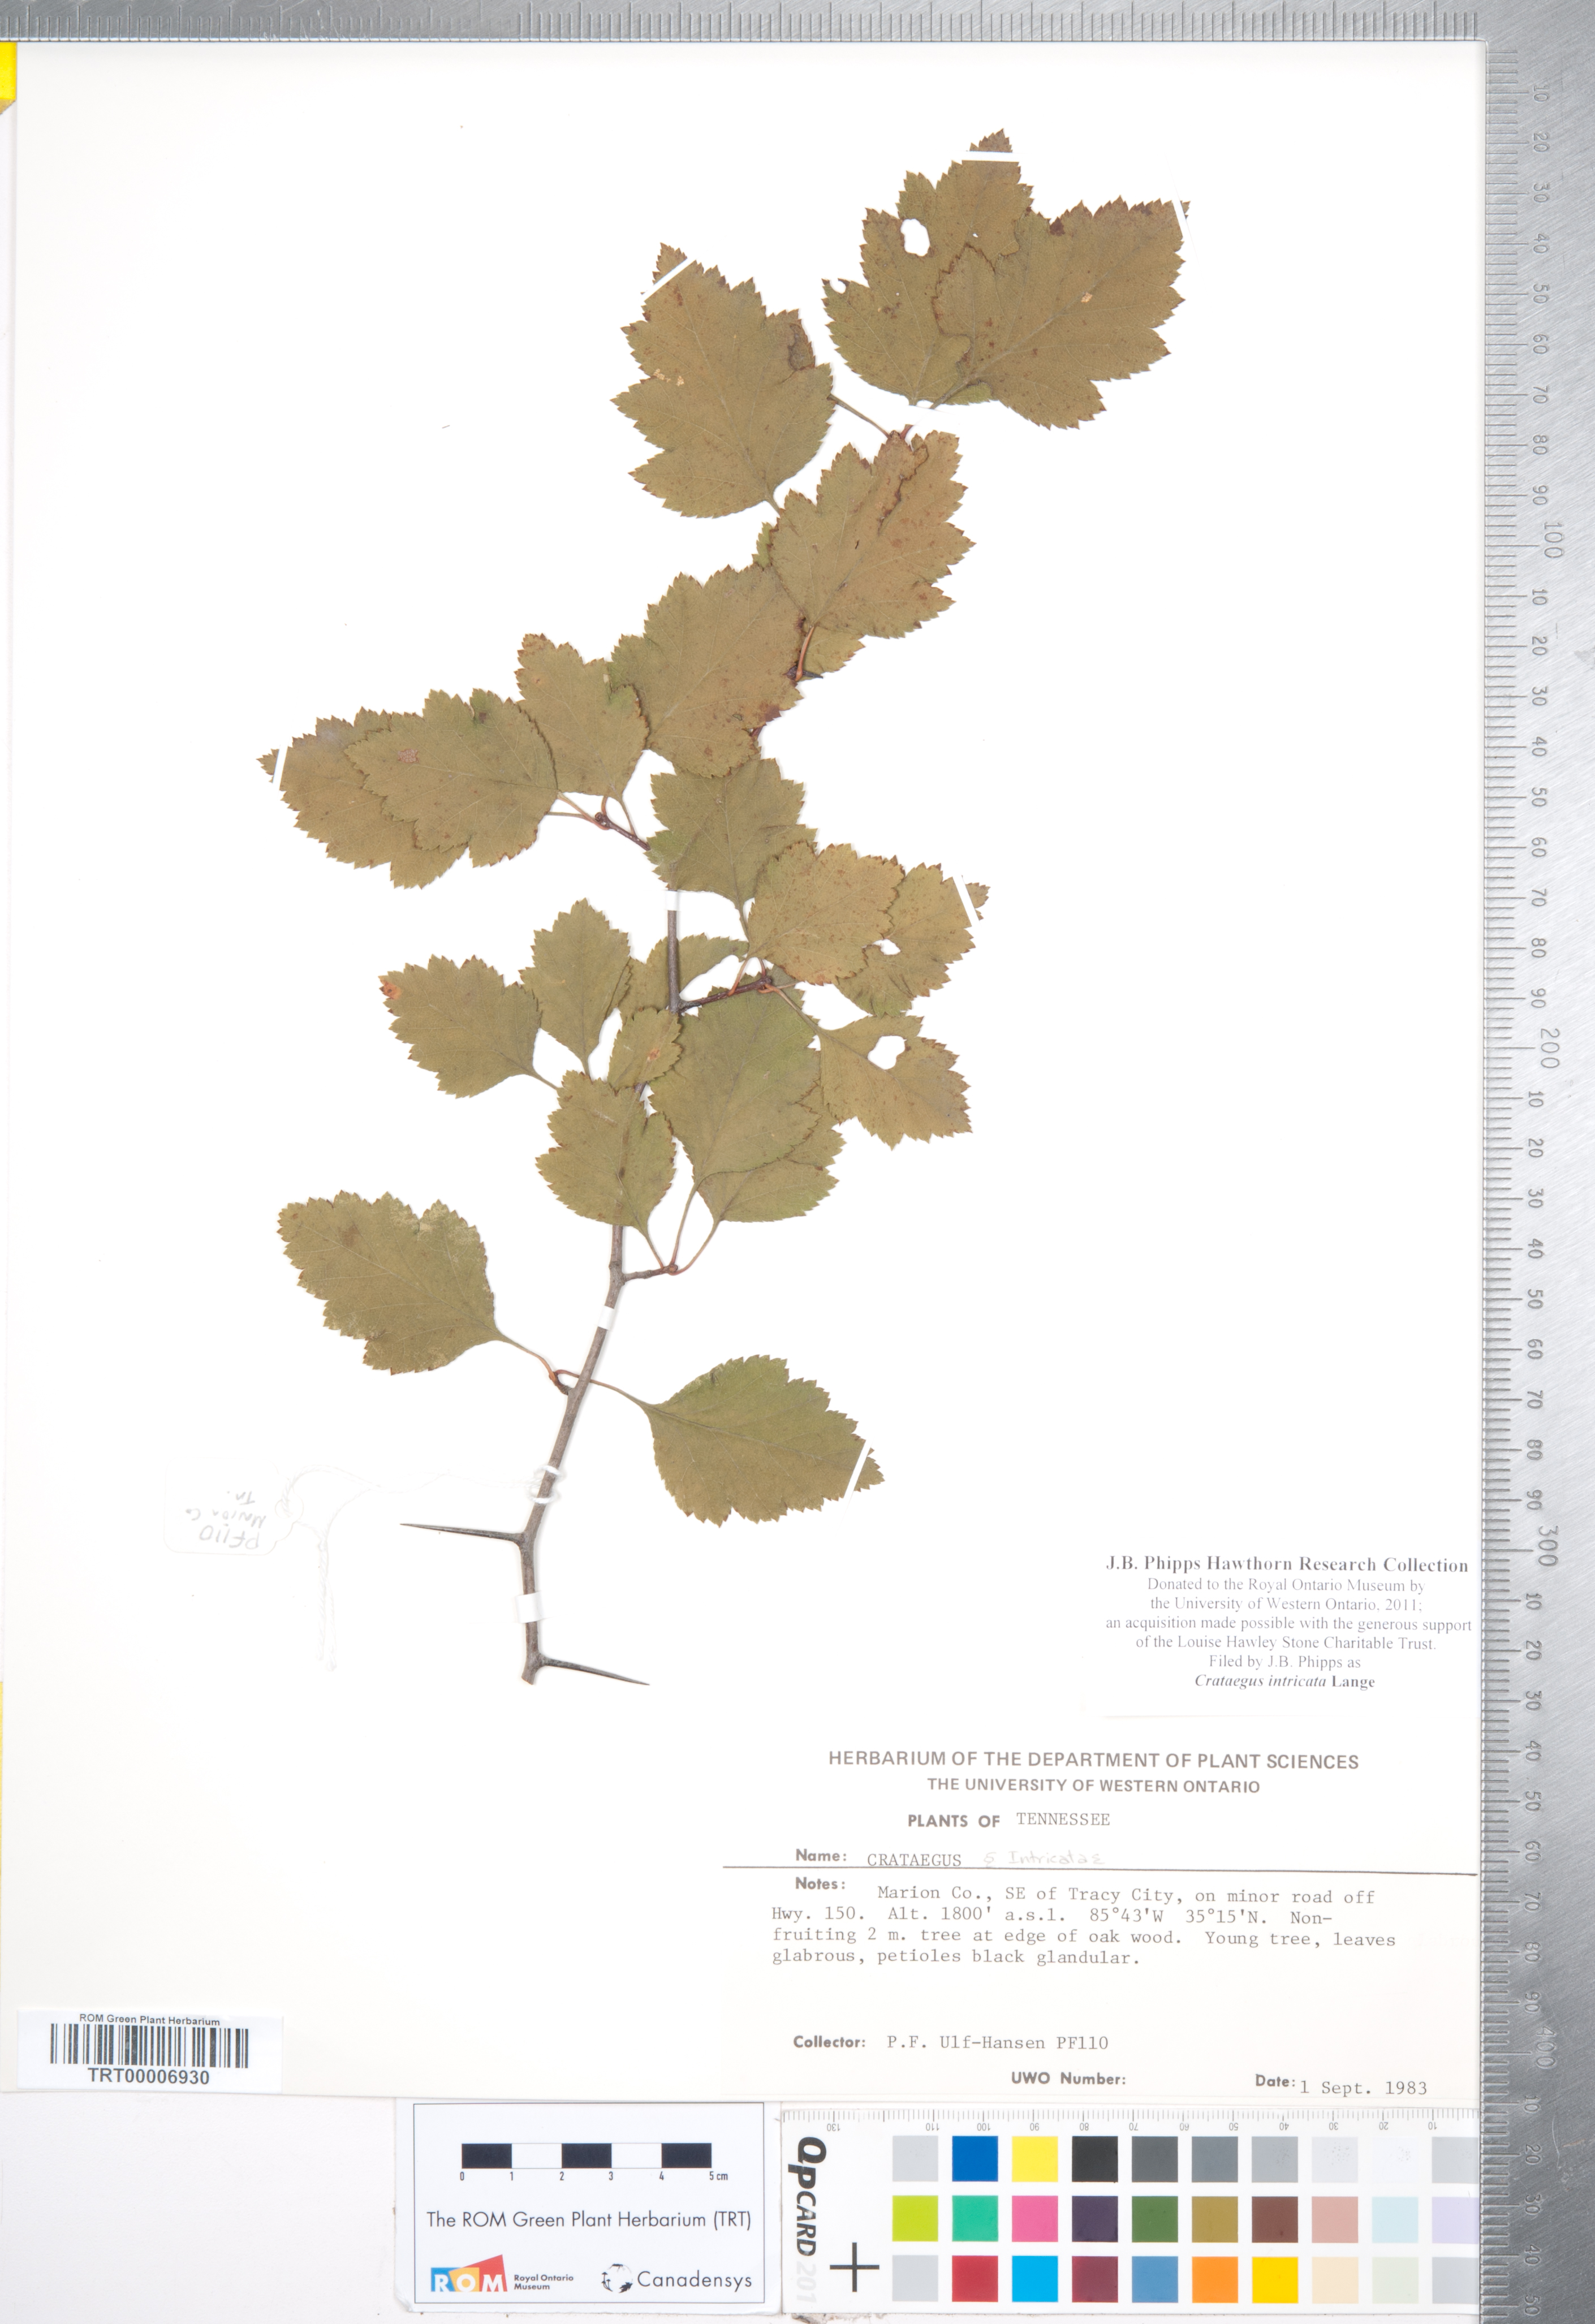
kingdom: Plantae
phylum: Tracheophyta
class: Magnoliopsida
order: Rosales
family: Rosaceae
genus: Crataegus
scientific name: Crataegus intricata
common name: Biltmore hawthorn
